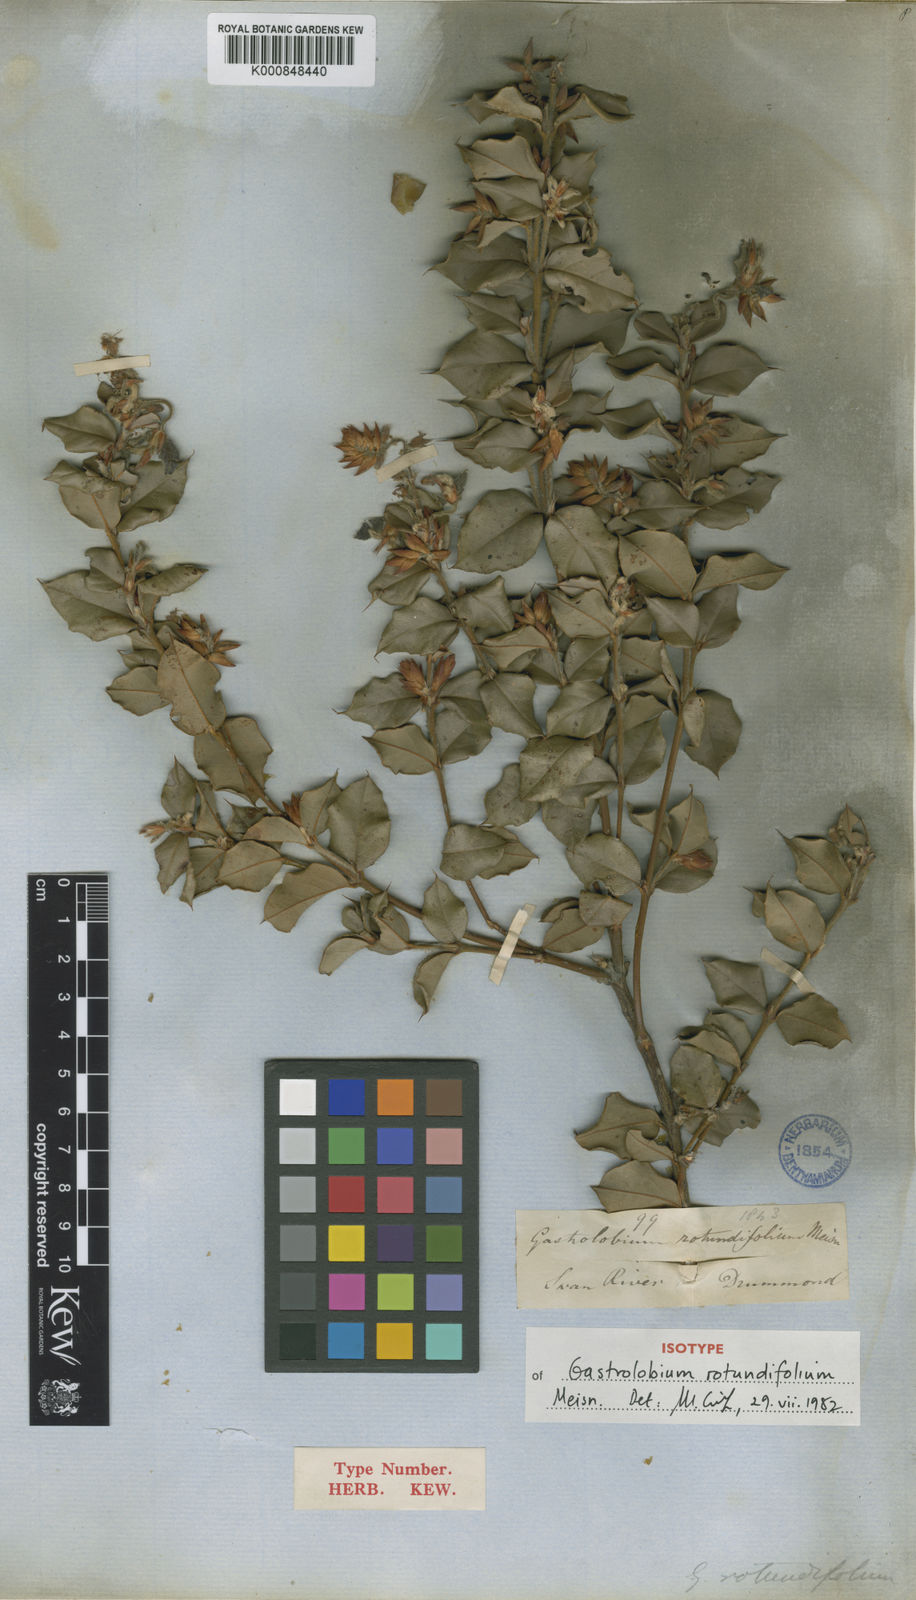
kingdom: Plantae
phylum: Tracheophyta
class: Magnoliopsida
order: Fabales
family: Fabaceae
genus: Gastrolobium
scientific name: Gastrolobium rotundifolium
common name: Gilbernine poison
